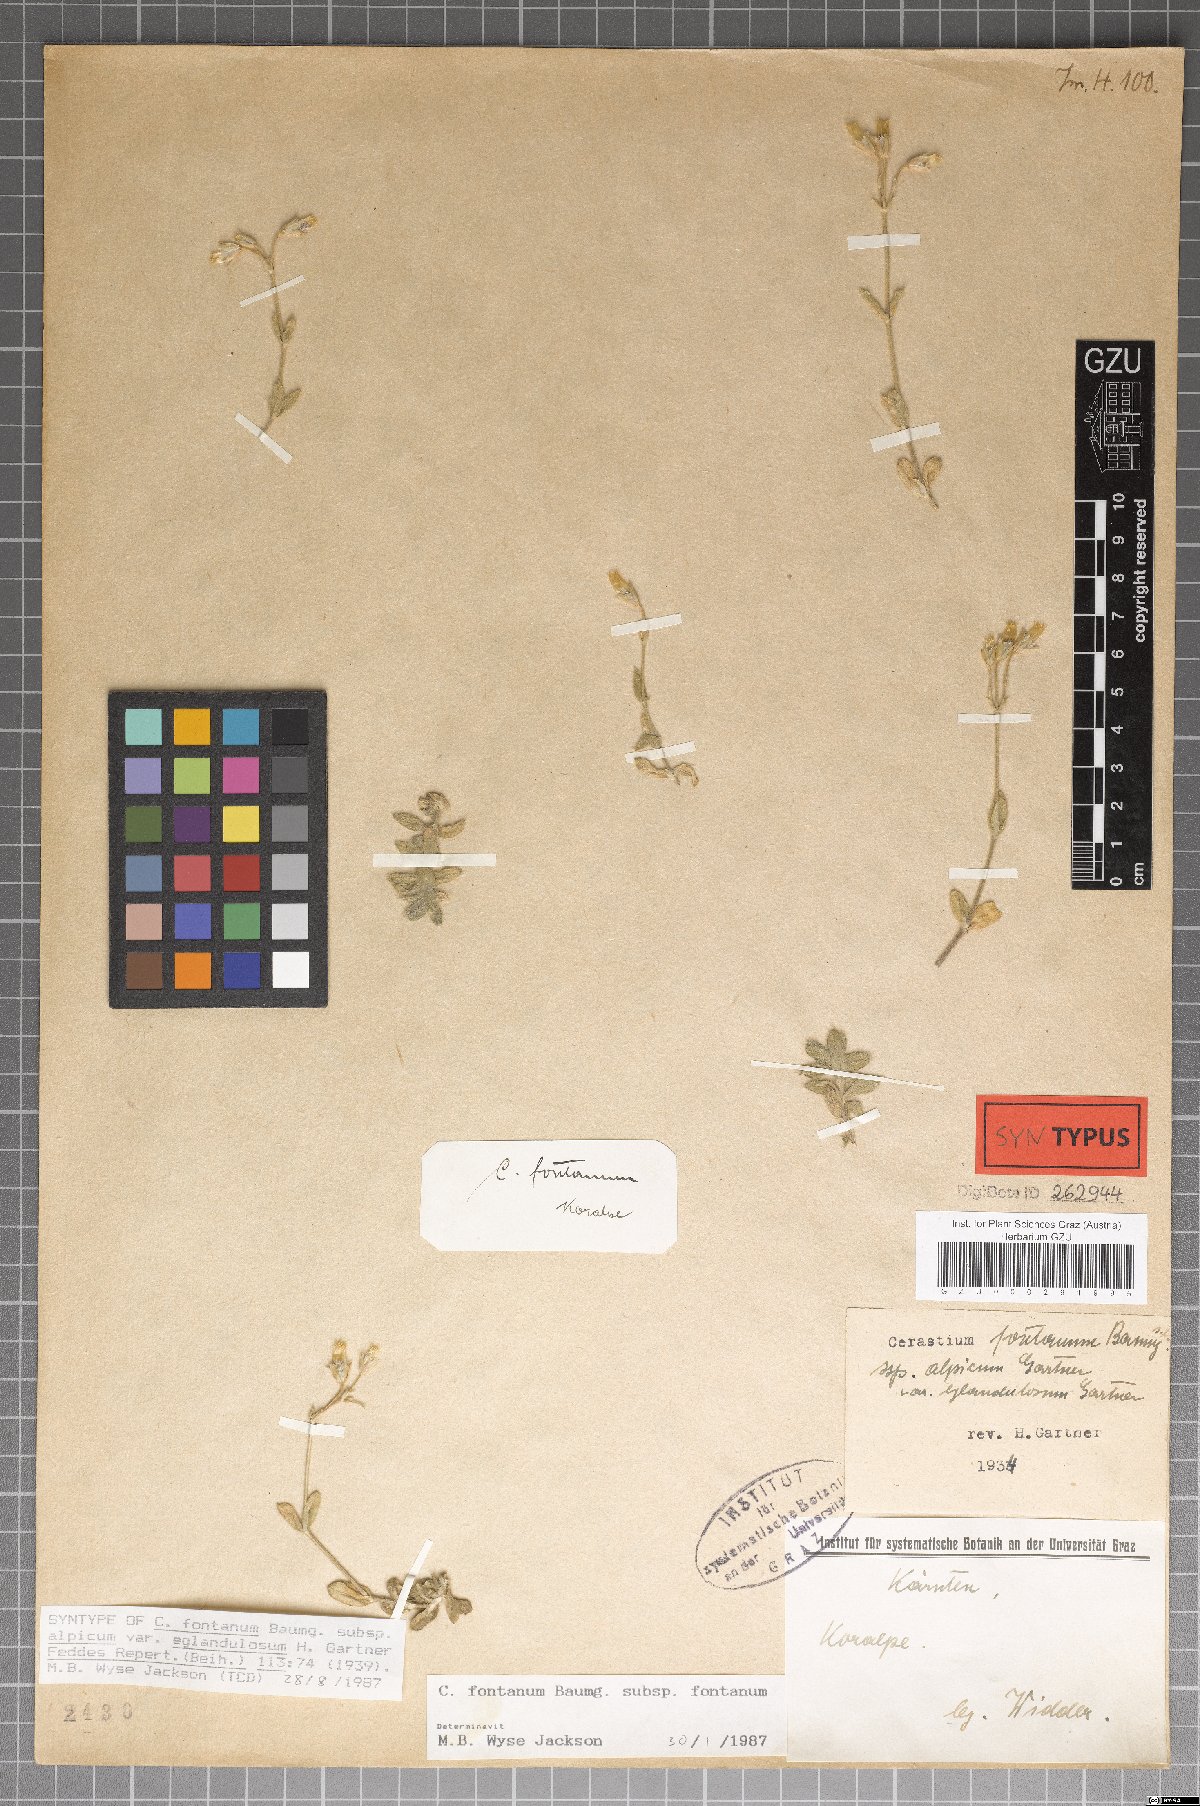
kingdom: Plantae
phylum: Tracheophyta
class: Magnoliopsida
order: Caryophyllales
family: Caryophyllaceae
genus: Cerastium
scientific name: Cerastium holosteoides
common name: Big chickweed
